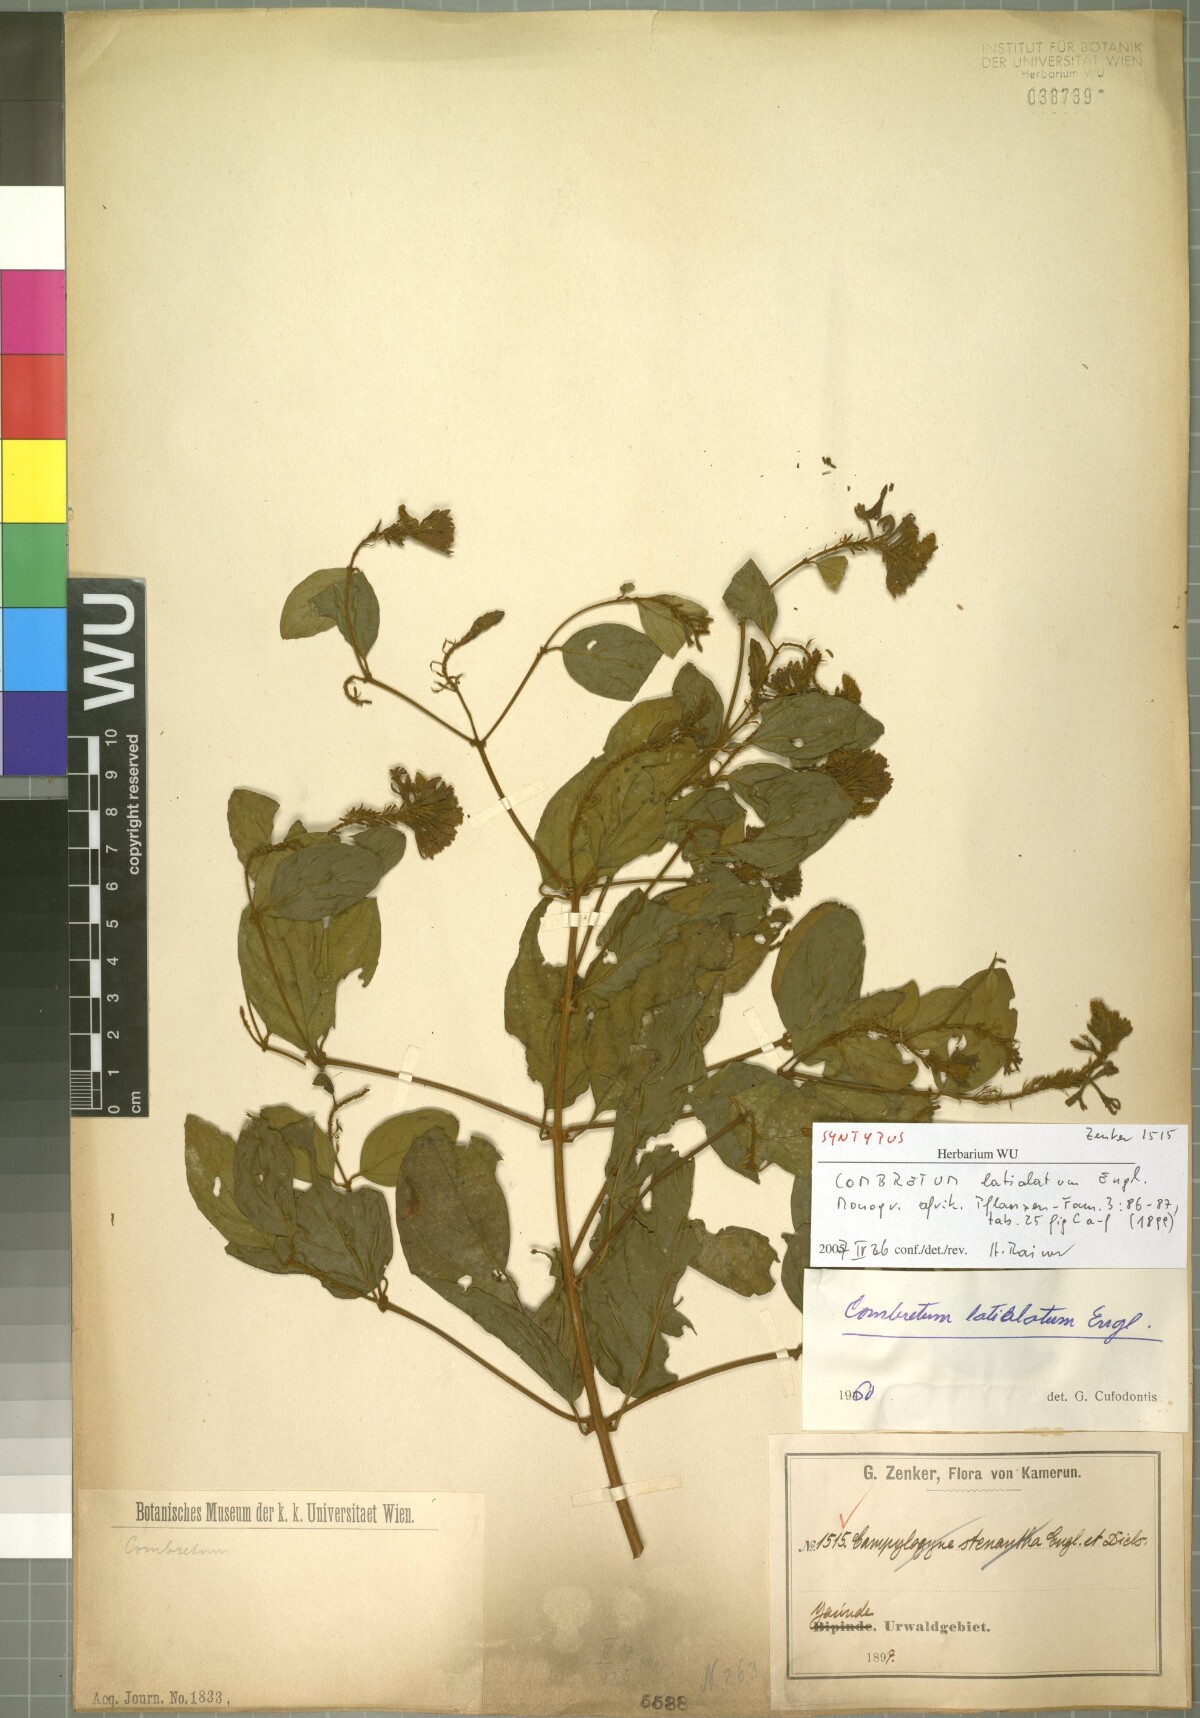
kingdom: Plantae
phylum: Tracheophyta
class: Magnoliopsida
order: Myrtales
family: Combretaceae
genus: Combretum
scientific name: Combretum latialatum
